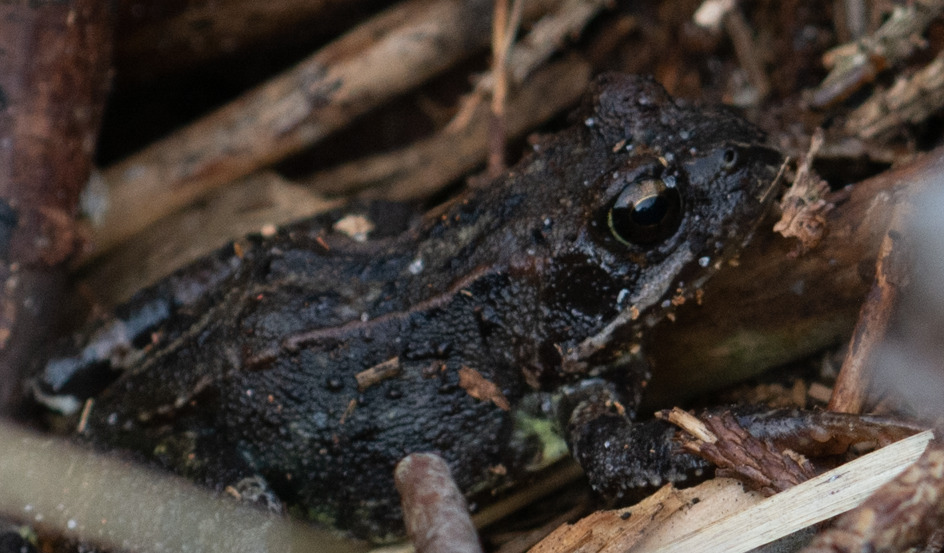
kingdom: Animalia
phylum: Chordata
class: Amphibia
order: Anura
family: Ranidae
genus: Rana
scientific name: Rana temporaria
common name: Butsnudet frø
